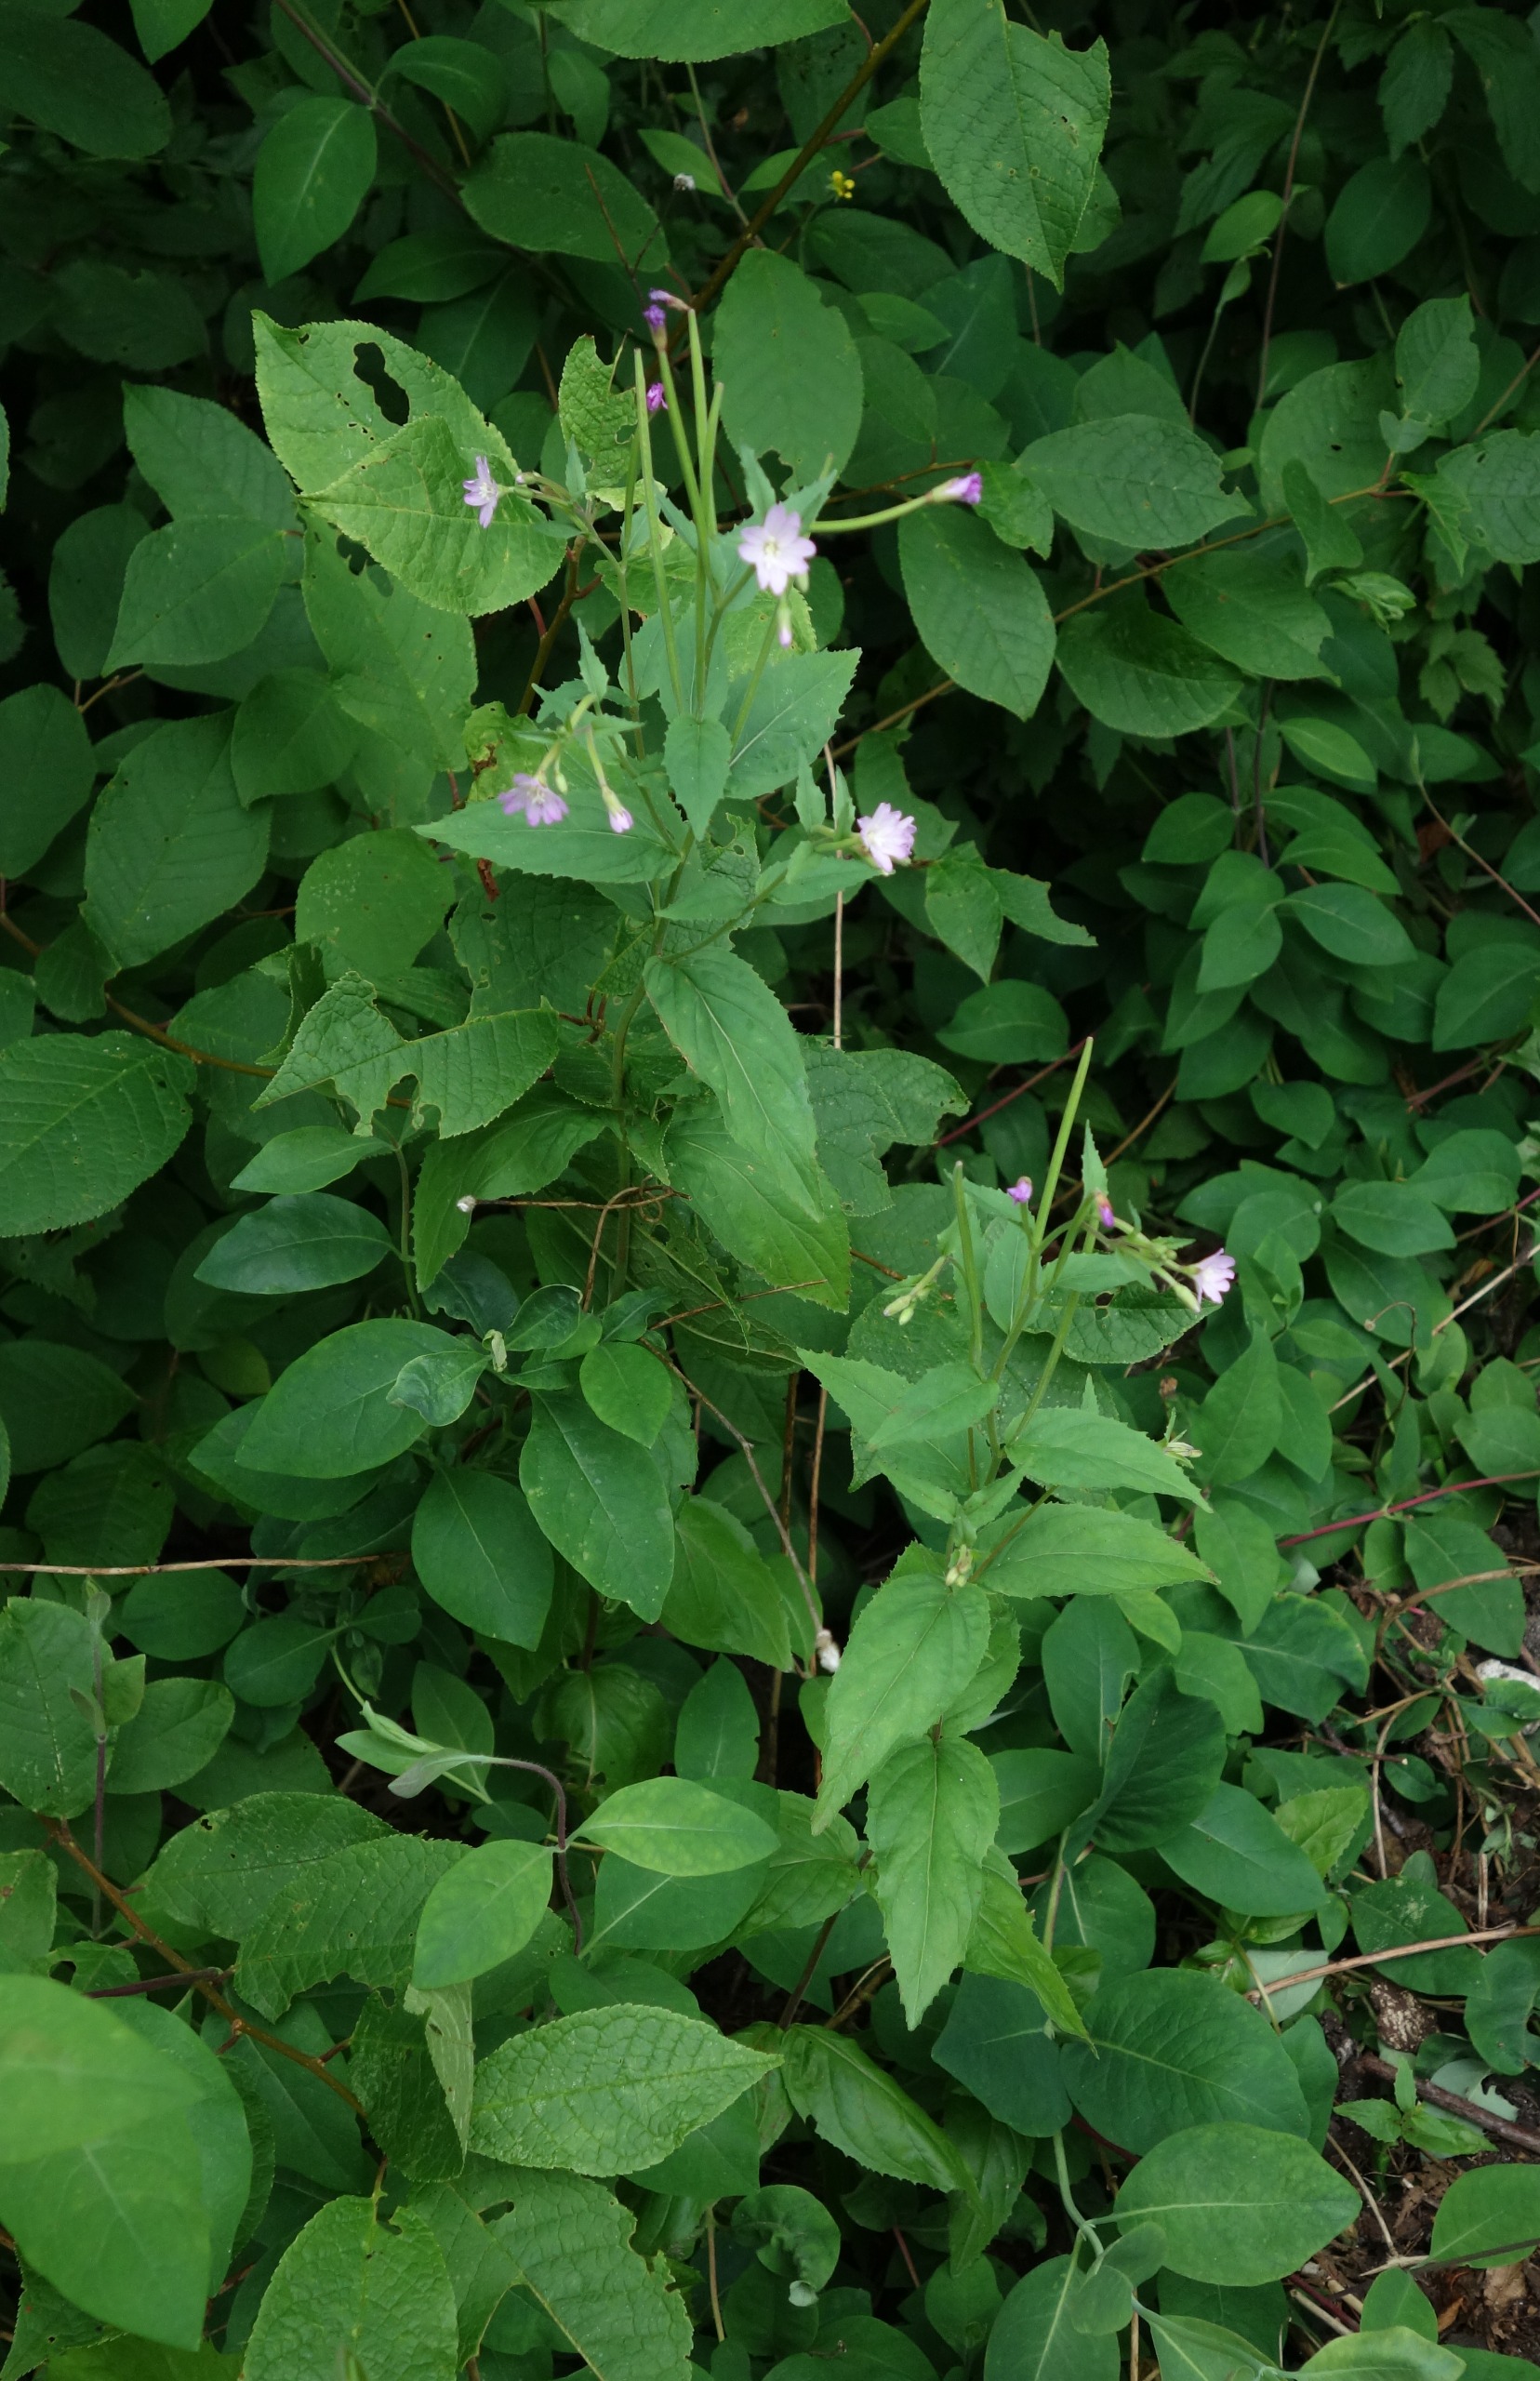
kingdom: Plantae
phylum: Tracheophyta
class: Magnoliopsida
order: Myrtales
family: Onagraceae
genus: Epilobium
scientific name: Epilobium montanum
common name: Glat dueurt
